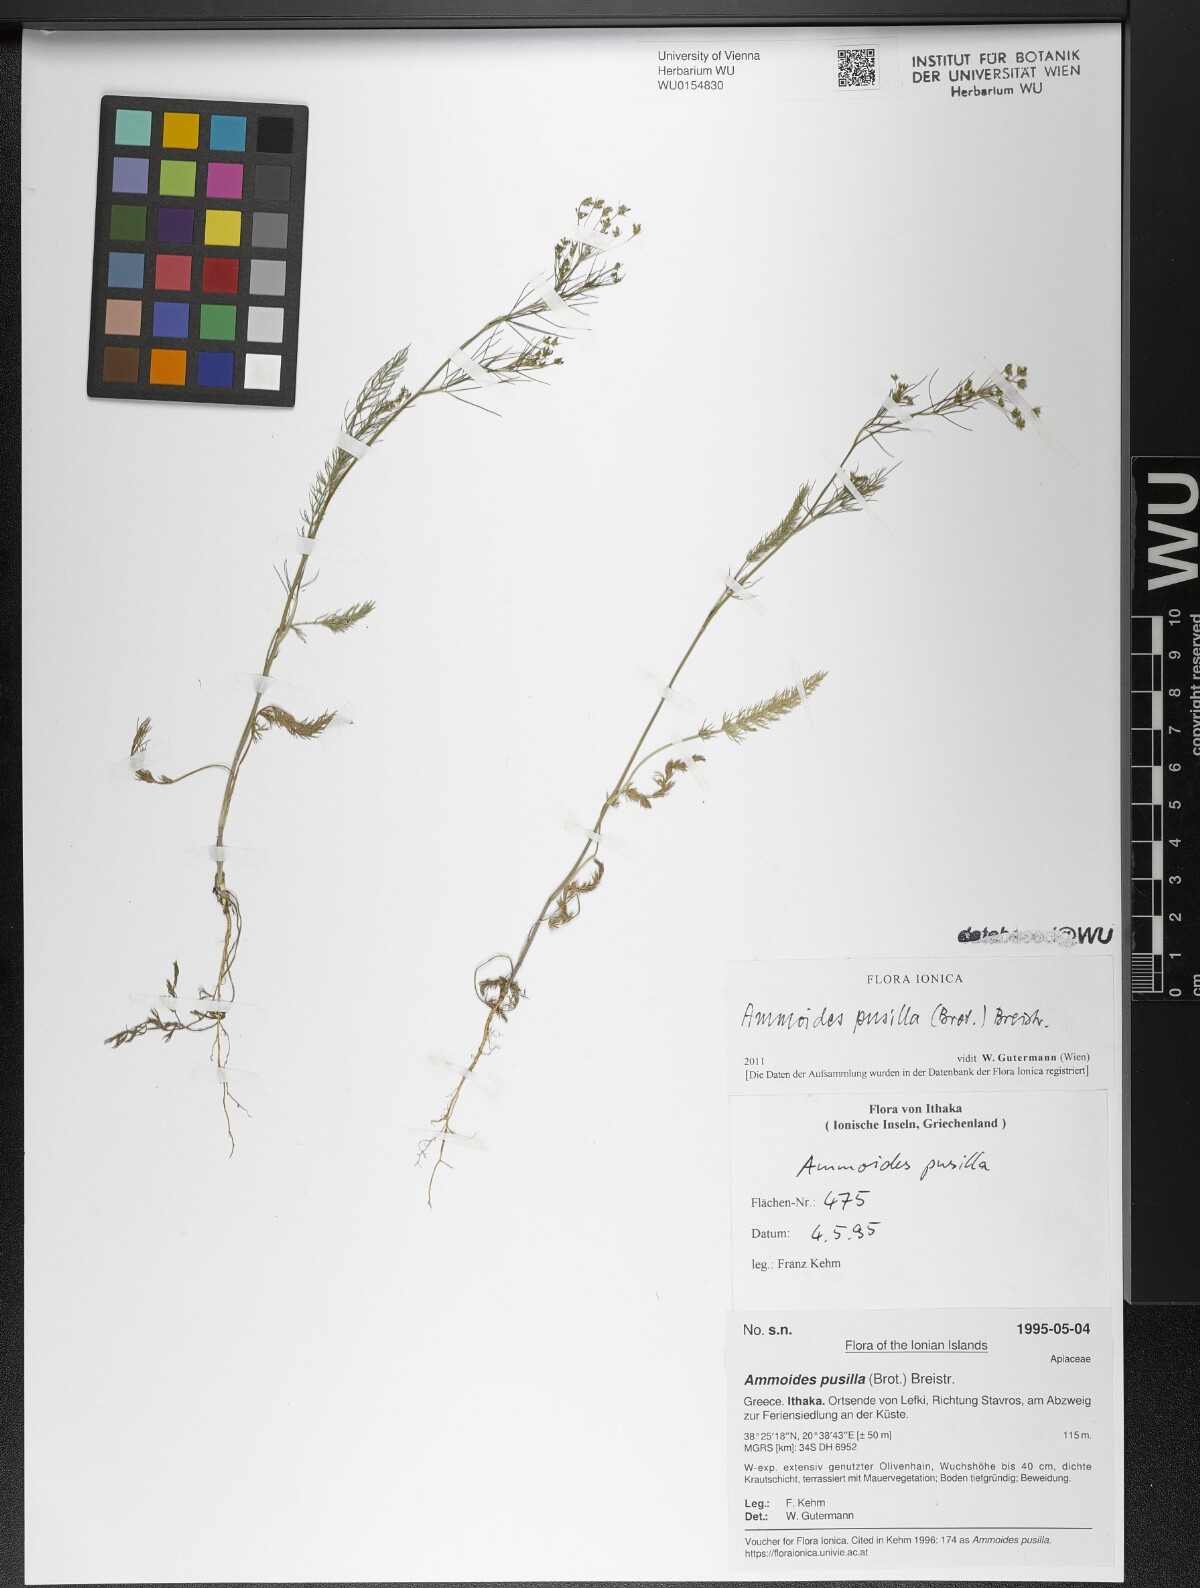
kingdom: Plantae
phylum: Tracheophyta
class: Magnoliopsida
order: Apiales
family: Apiaceae
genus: Ammoides
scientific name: Ammoides pusilla
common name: Cerfolium
